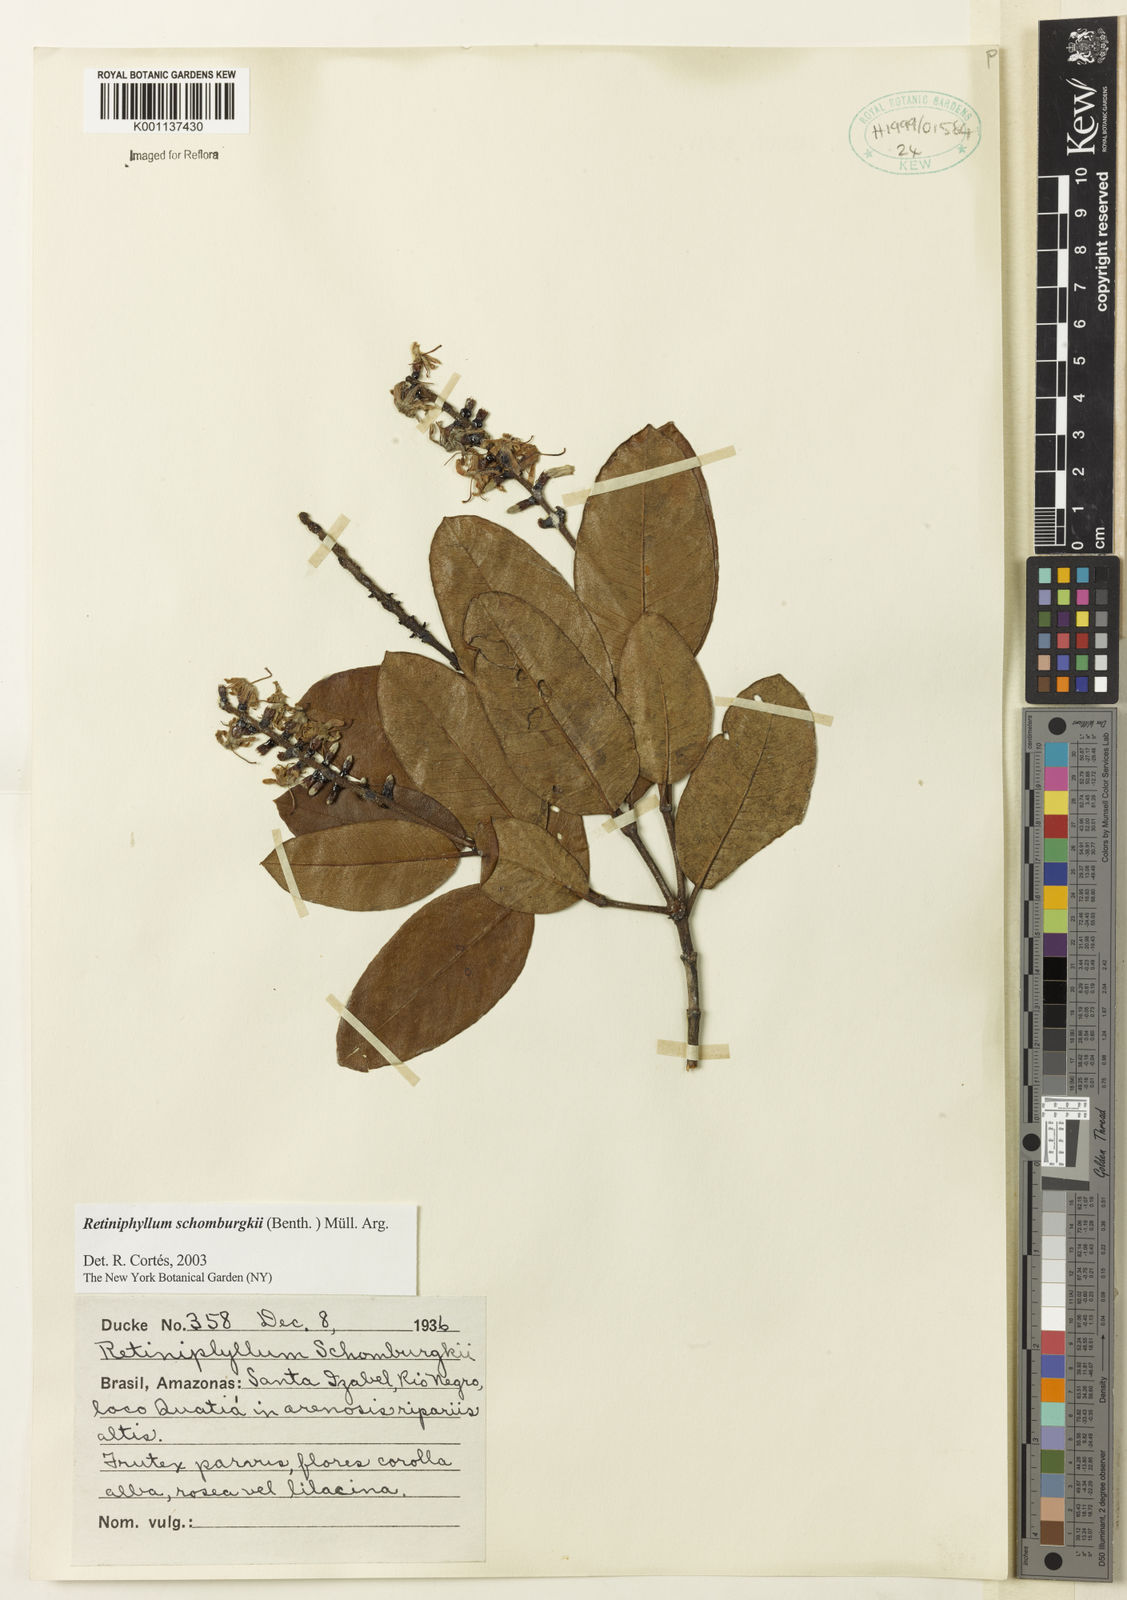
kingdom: Plantae
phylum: Tracheophyta
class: Magnoliopsida
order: Gentianales
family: Rubiaceae
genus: Retiniphyllum
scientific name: Retiniphyllum
